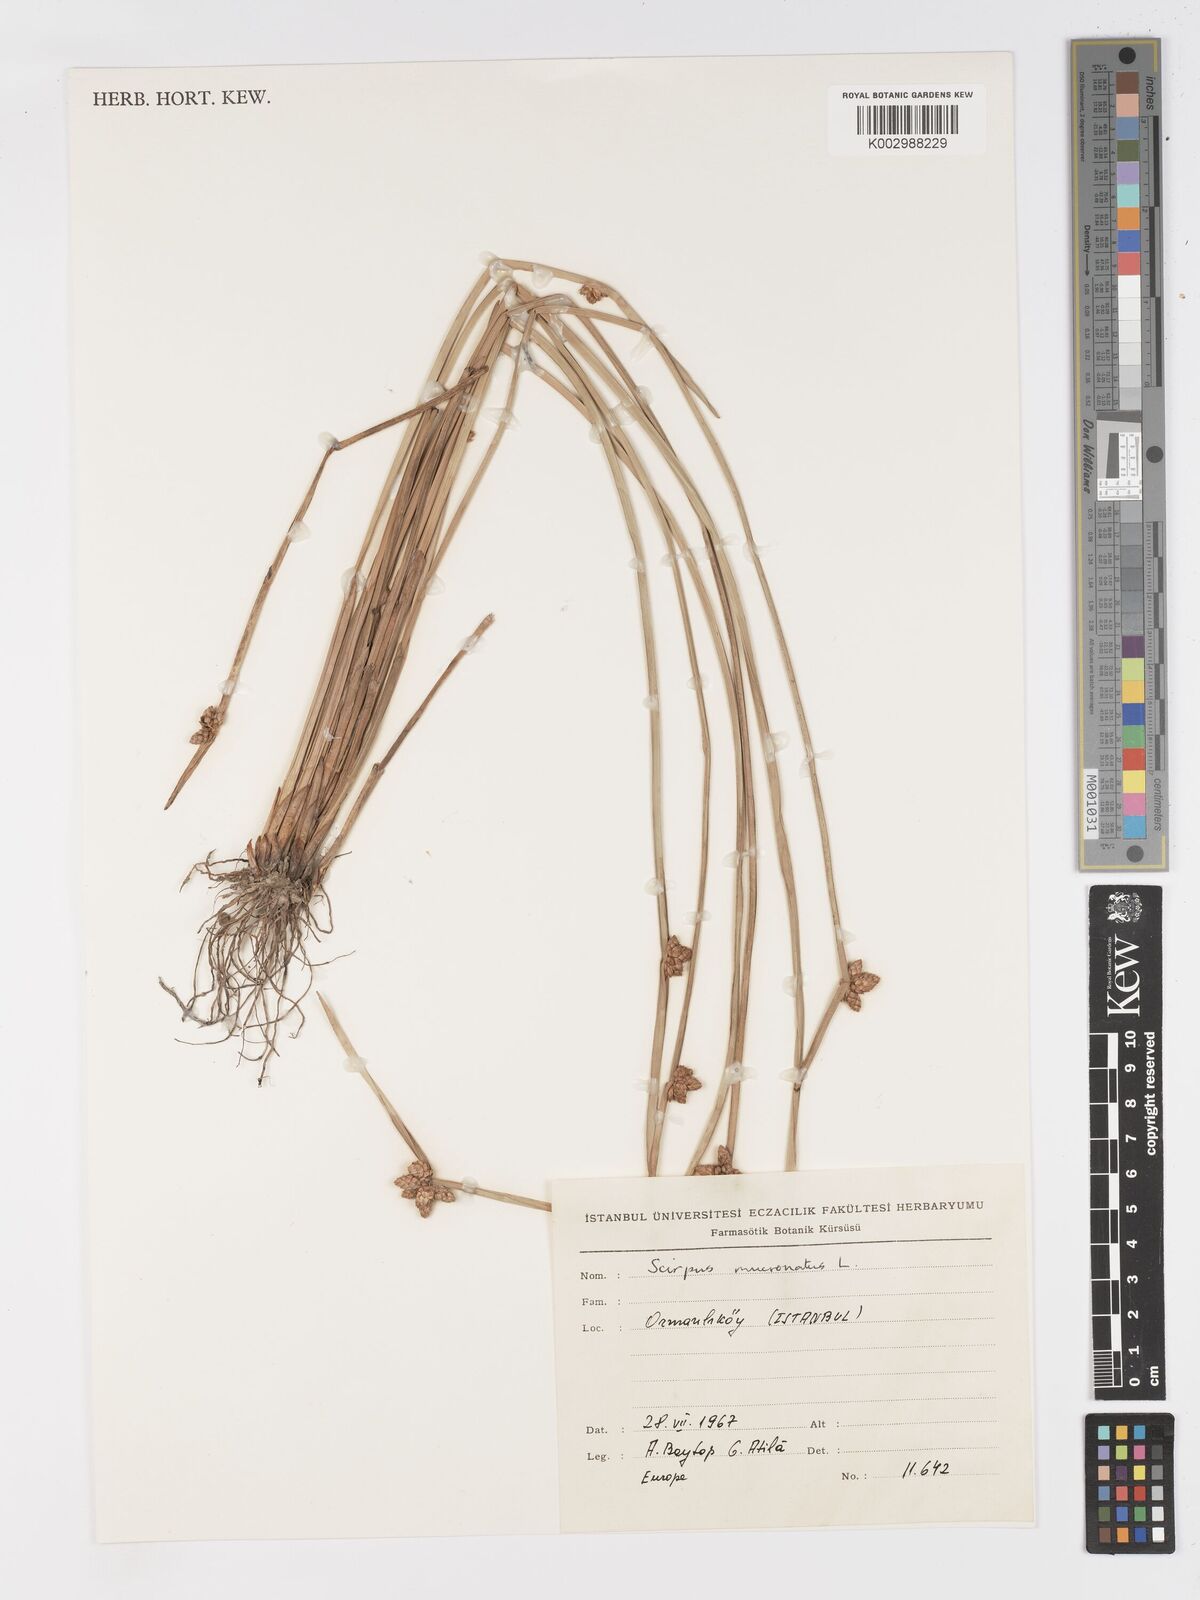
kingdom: Plantae
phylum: Tracheophyta
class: Liliopsida
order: Poales
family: Cyperaceae
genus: Schoenoplectiella
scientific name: Schoenoplectiella mucronata
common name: Bog bulrush
